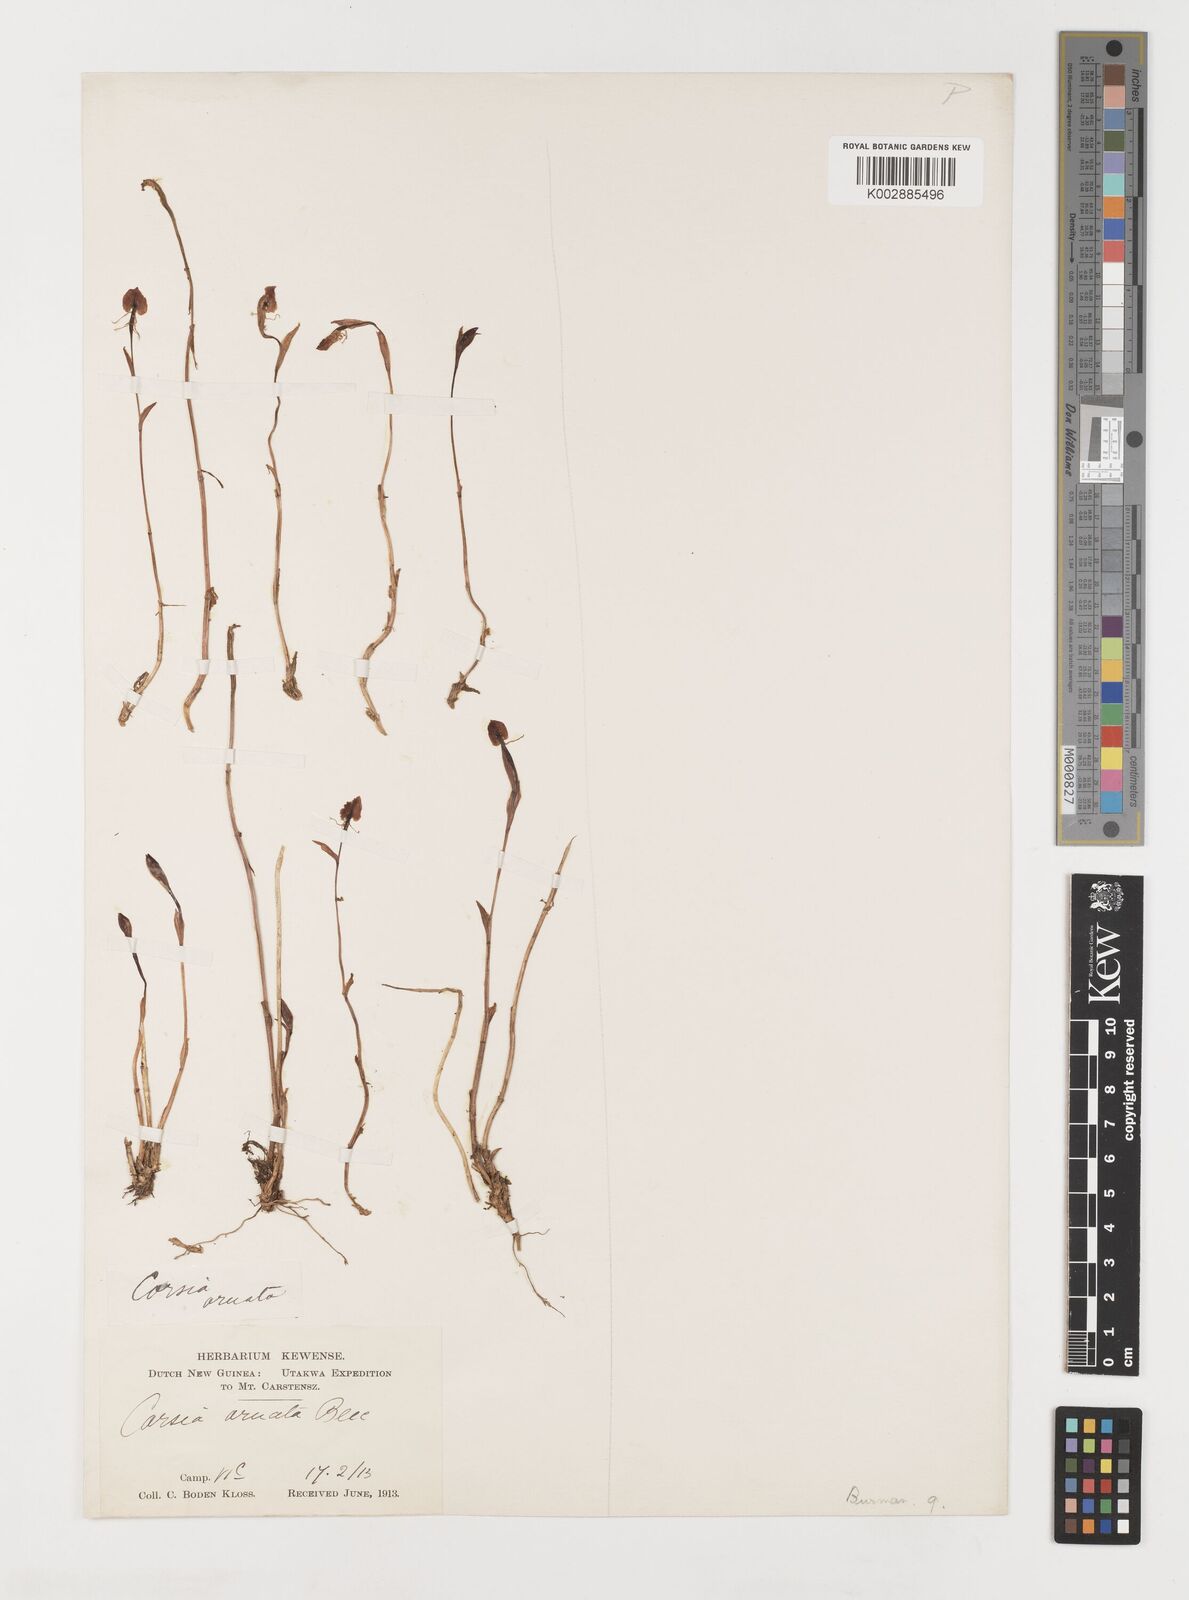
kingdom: Plantae
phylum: Tracheophyta
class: Liliopsida
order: Liliales
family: Corsiaceae
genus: Corsia
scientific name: Corsia ornata
